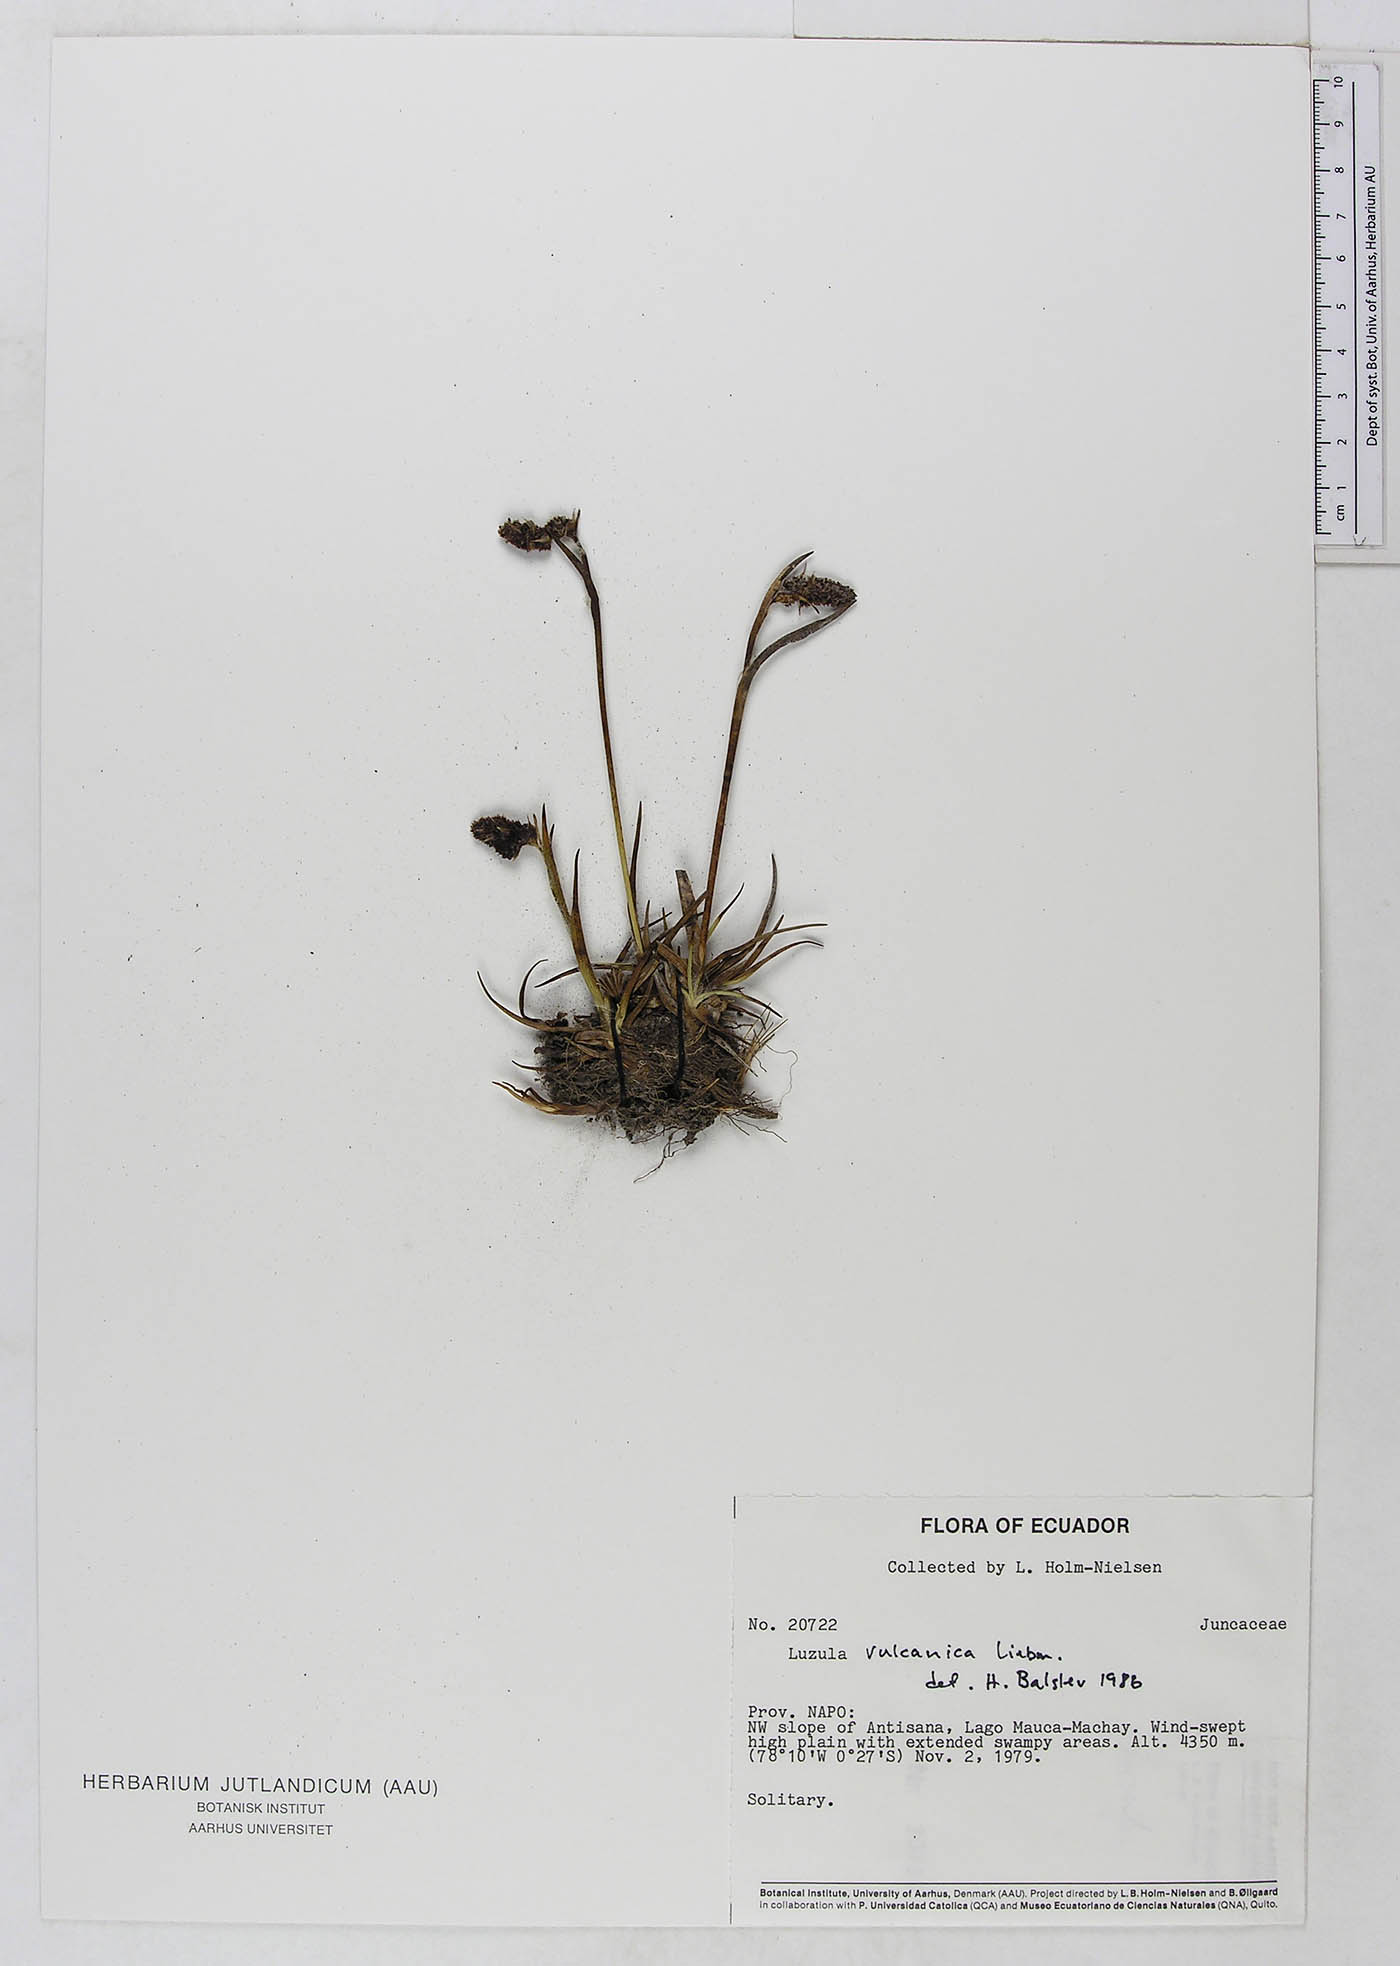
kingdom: Plantae
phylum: Tracheophyta
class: Liliopsida
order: Poales
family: Juncaceae
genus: Luzula
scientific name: Luzula vulcanica
